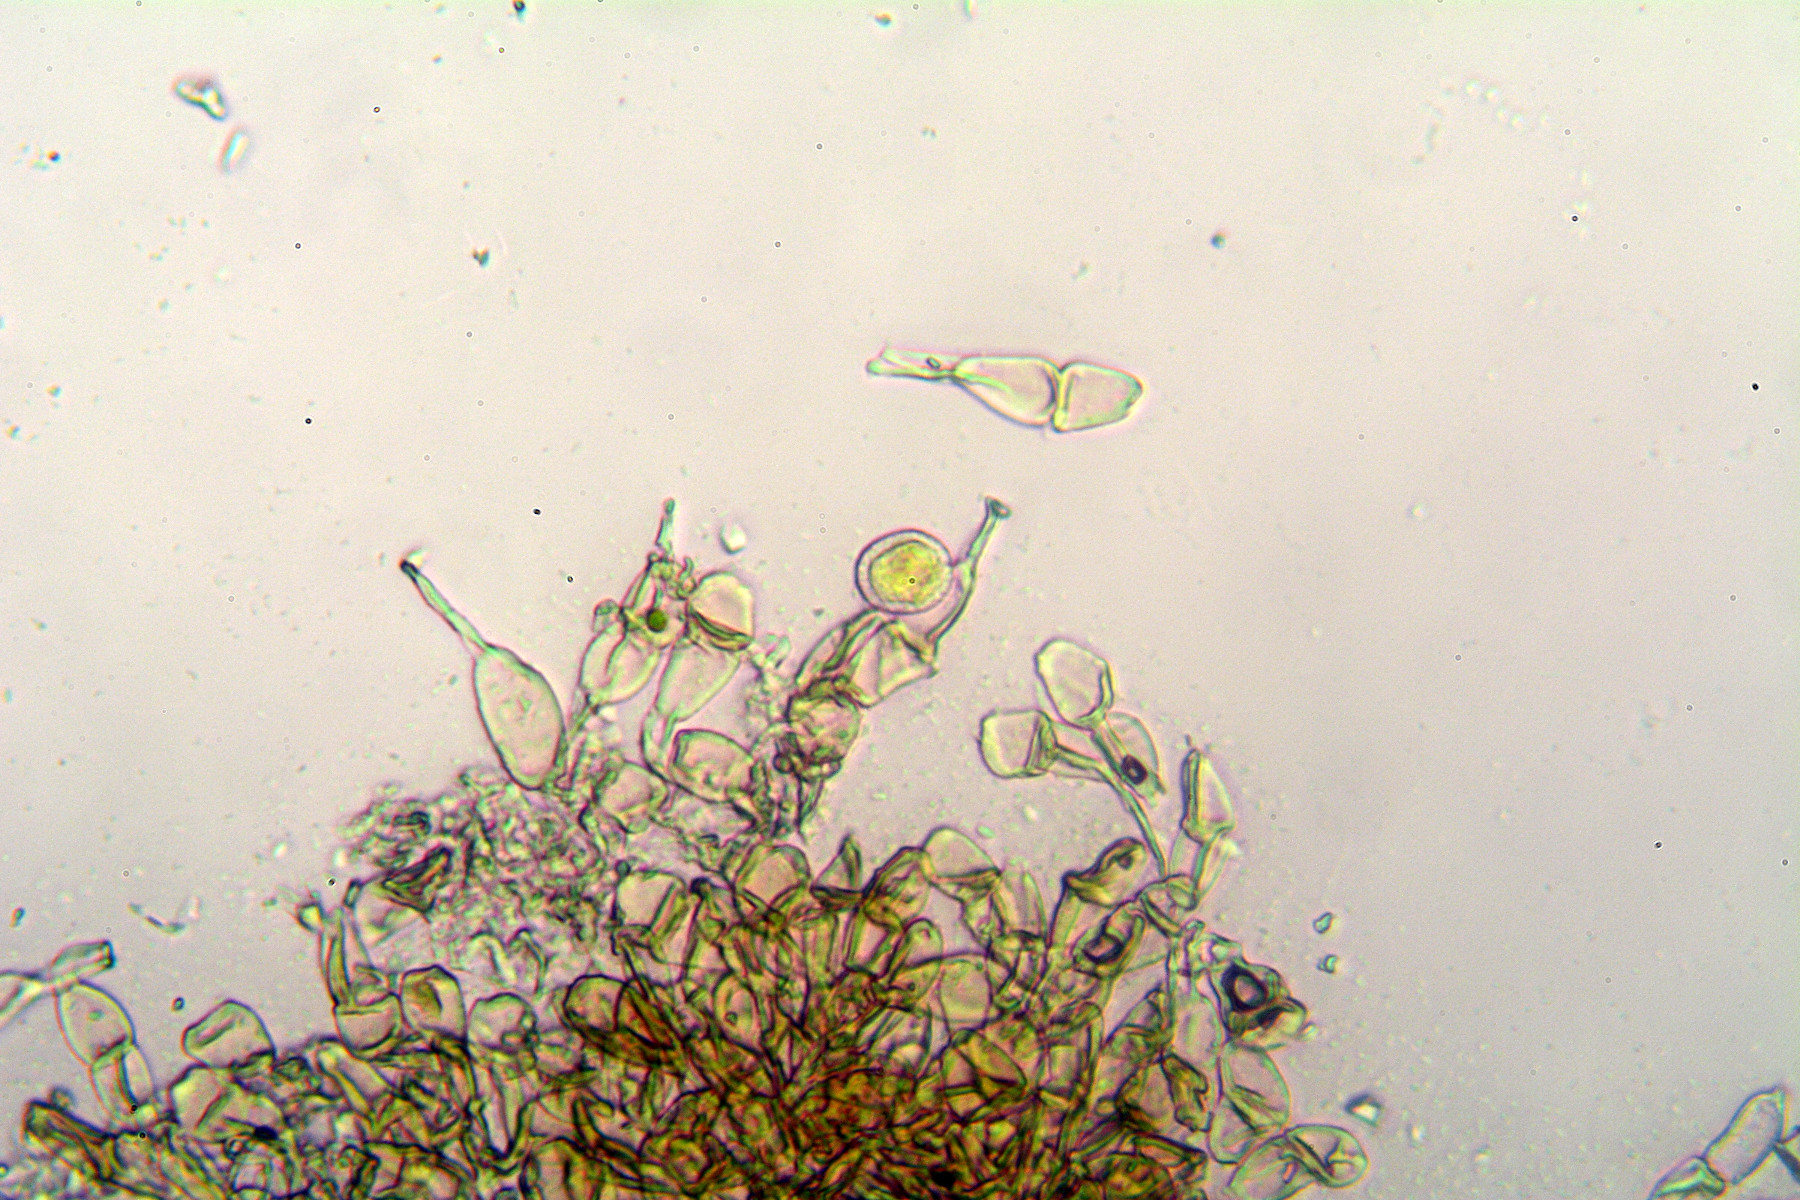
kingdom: Fungi
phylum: Basidiomycota
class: Pucciniomycetes
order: Pucciniales
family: Pucciniaceae
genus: Puccinia
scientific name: Puccinia albulensis
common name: Alpine veronica rust
